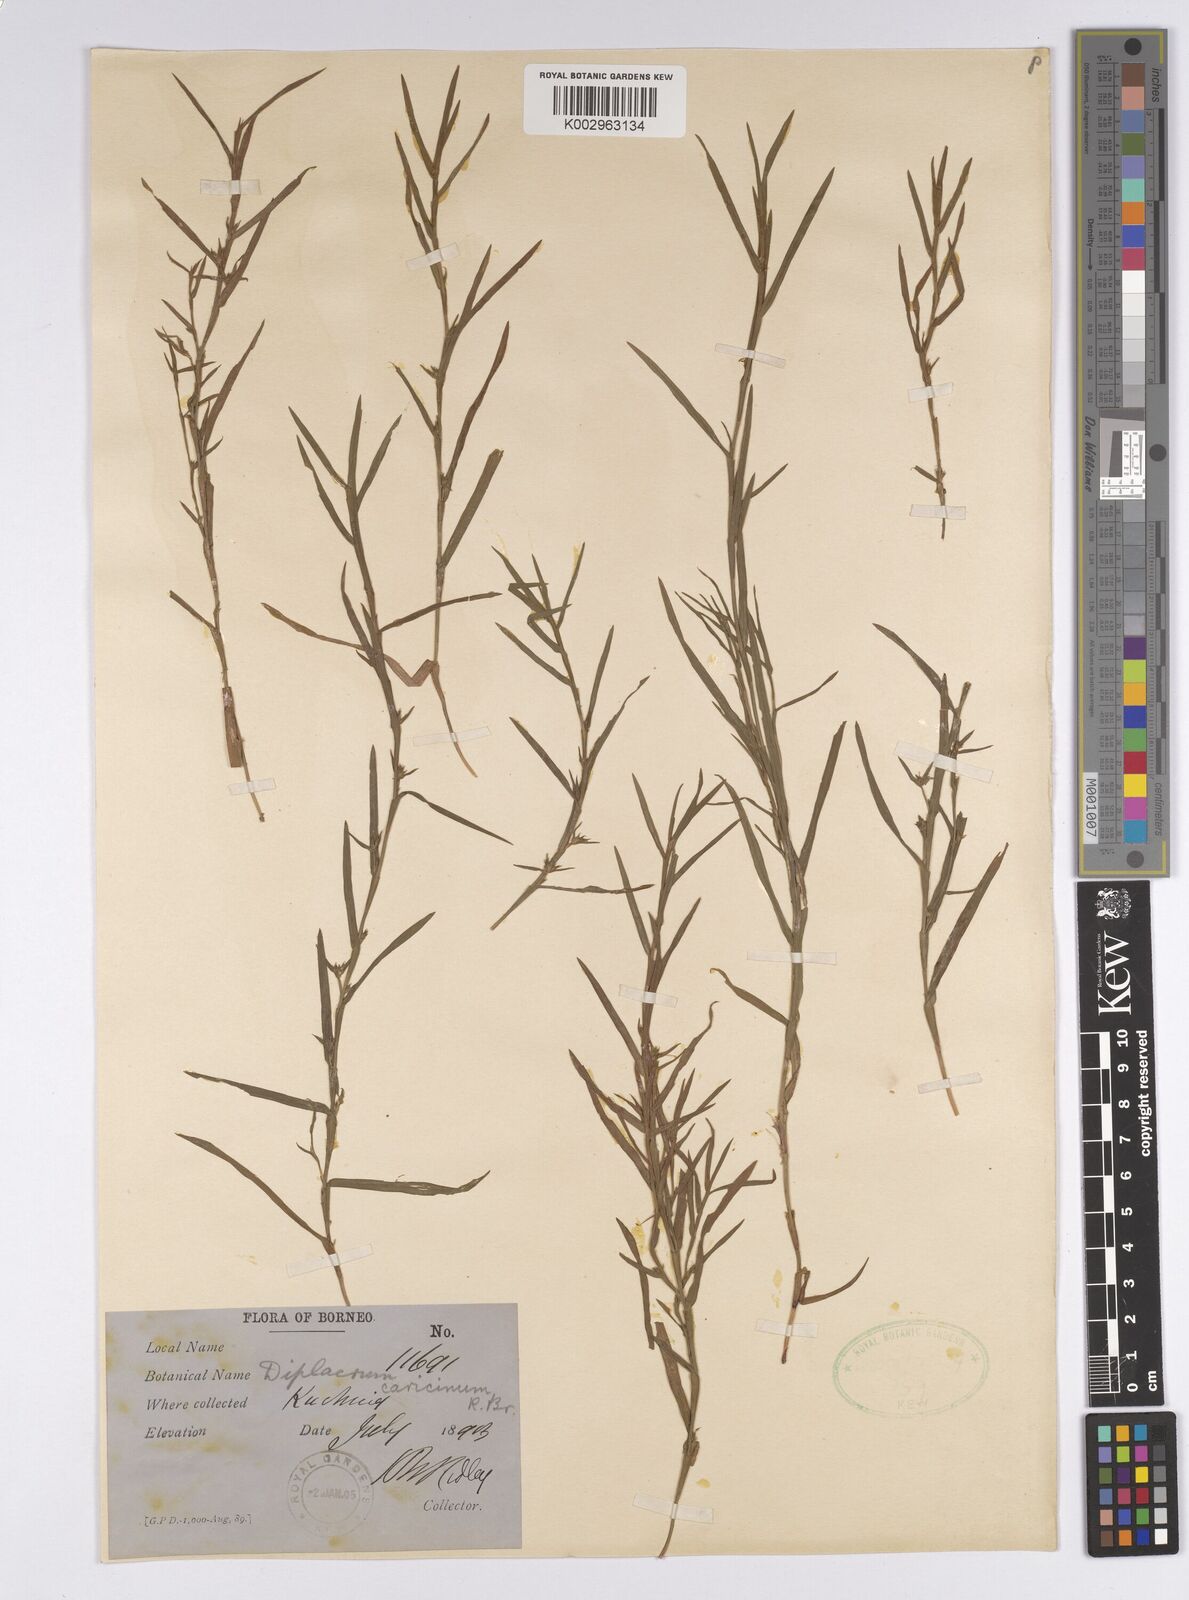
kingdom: Plantae
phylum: Tracheophyta
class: Liliopsida
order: Poales
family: Cyperaceae
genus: Diplacrum
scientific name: Diplacrum caricinum
